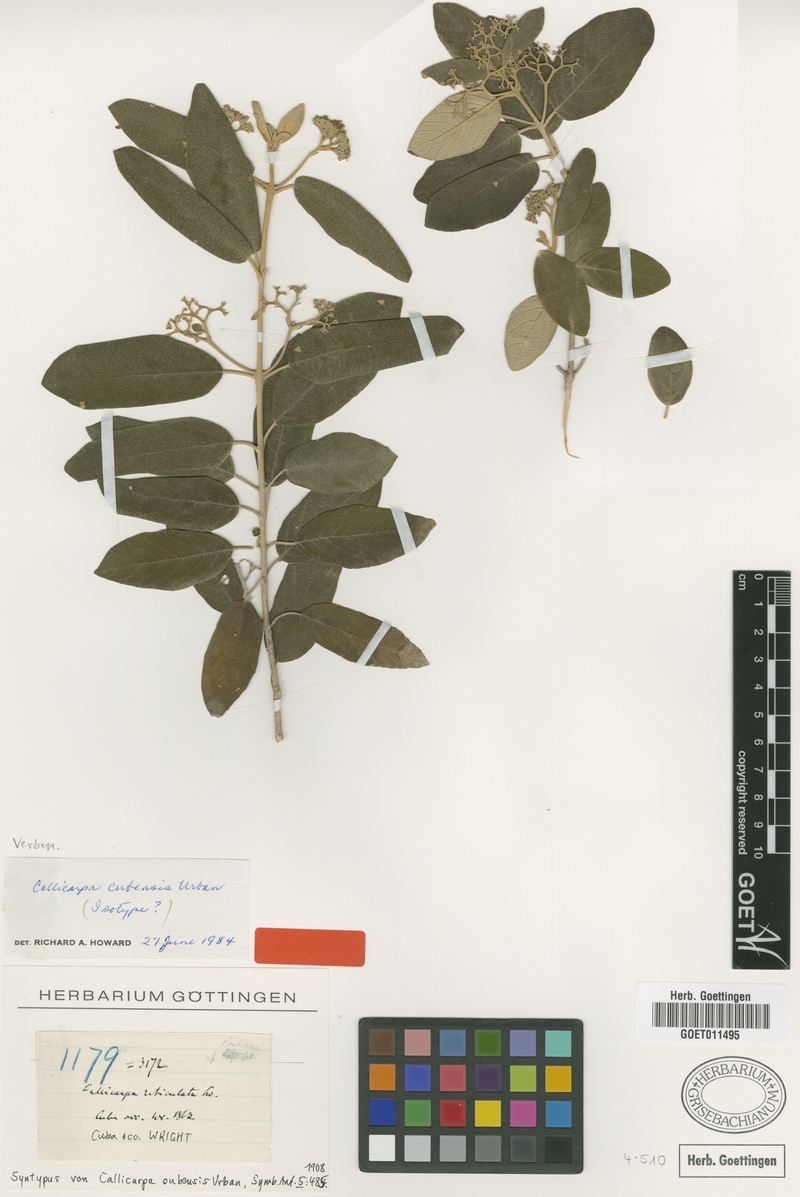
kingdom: Plantae
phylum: Tracheophyta
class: Magnoliopsida
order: Lamiales
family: Lamiaceae
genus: Callicarpa
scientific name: Callicarpa cubensis
